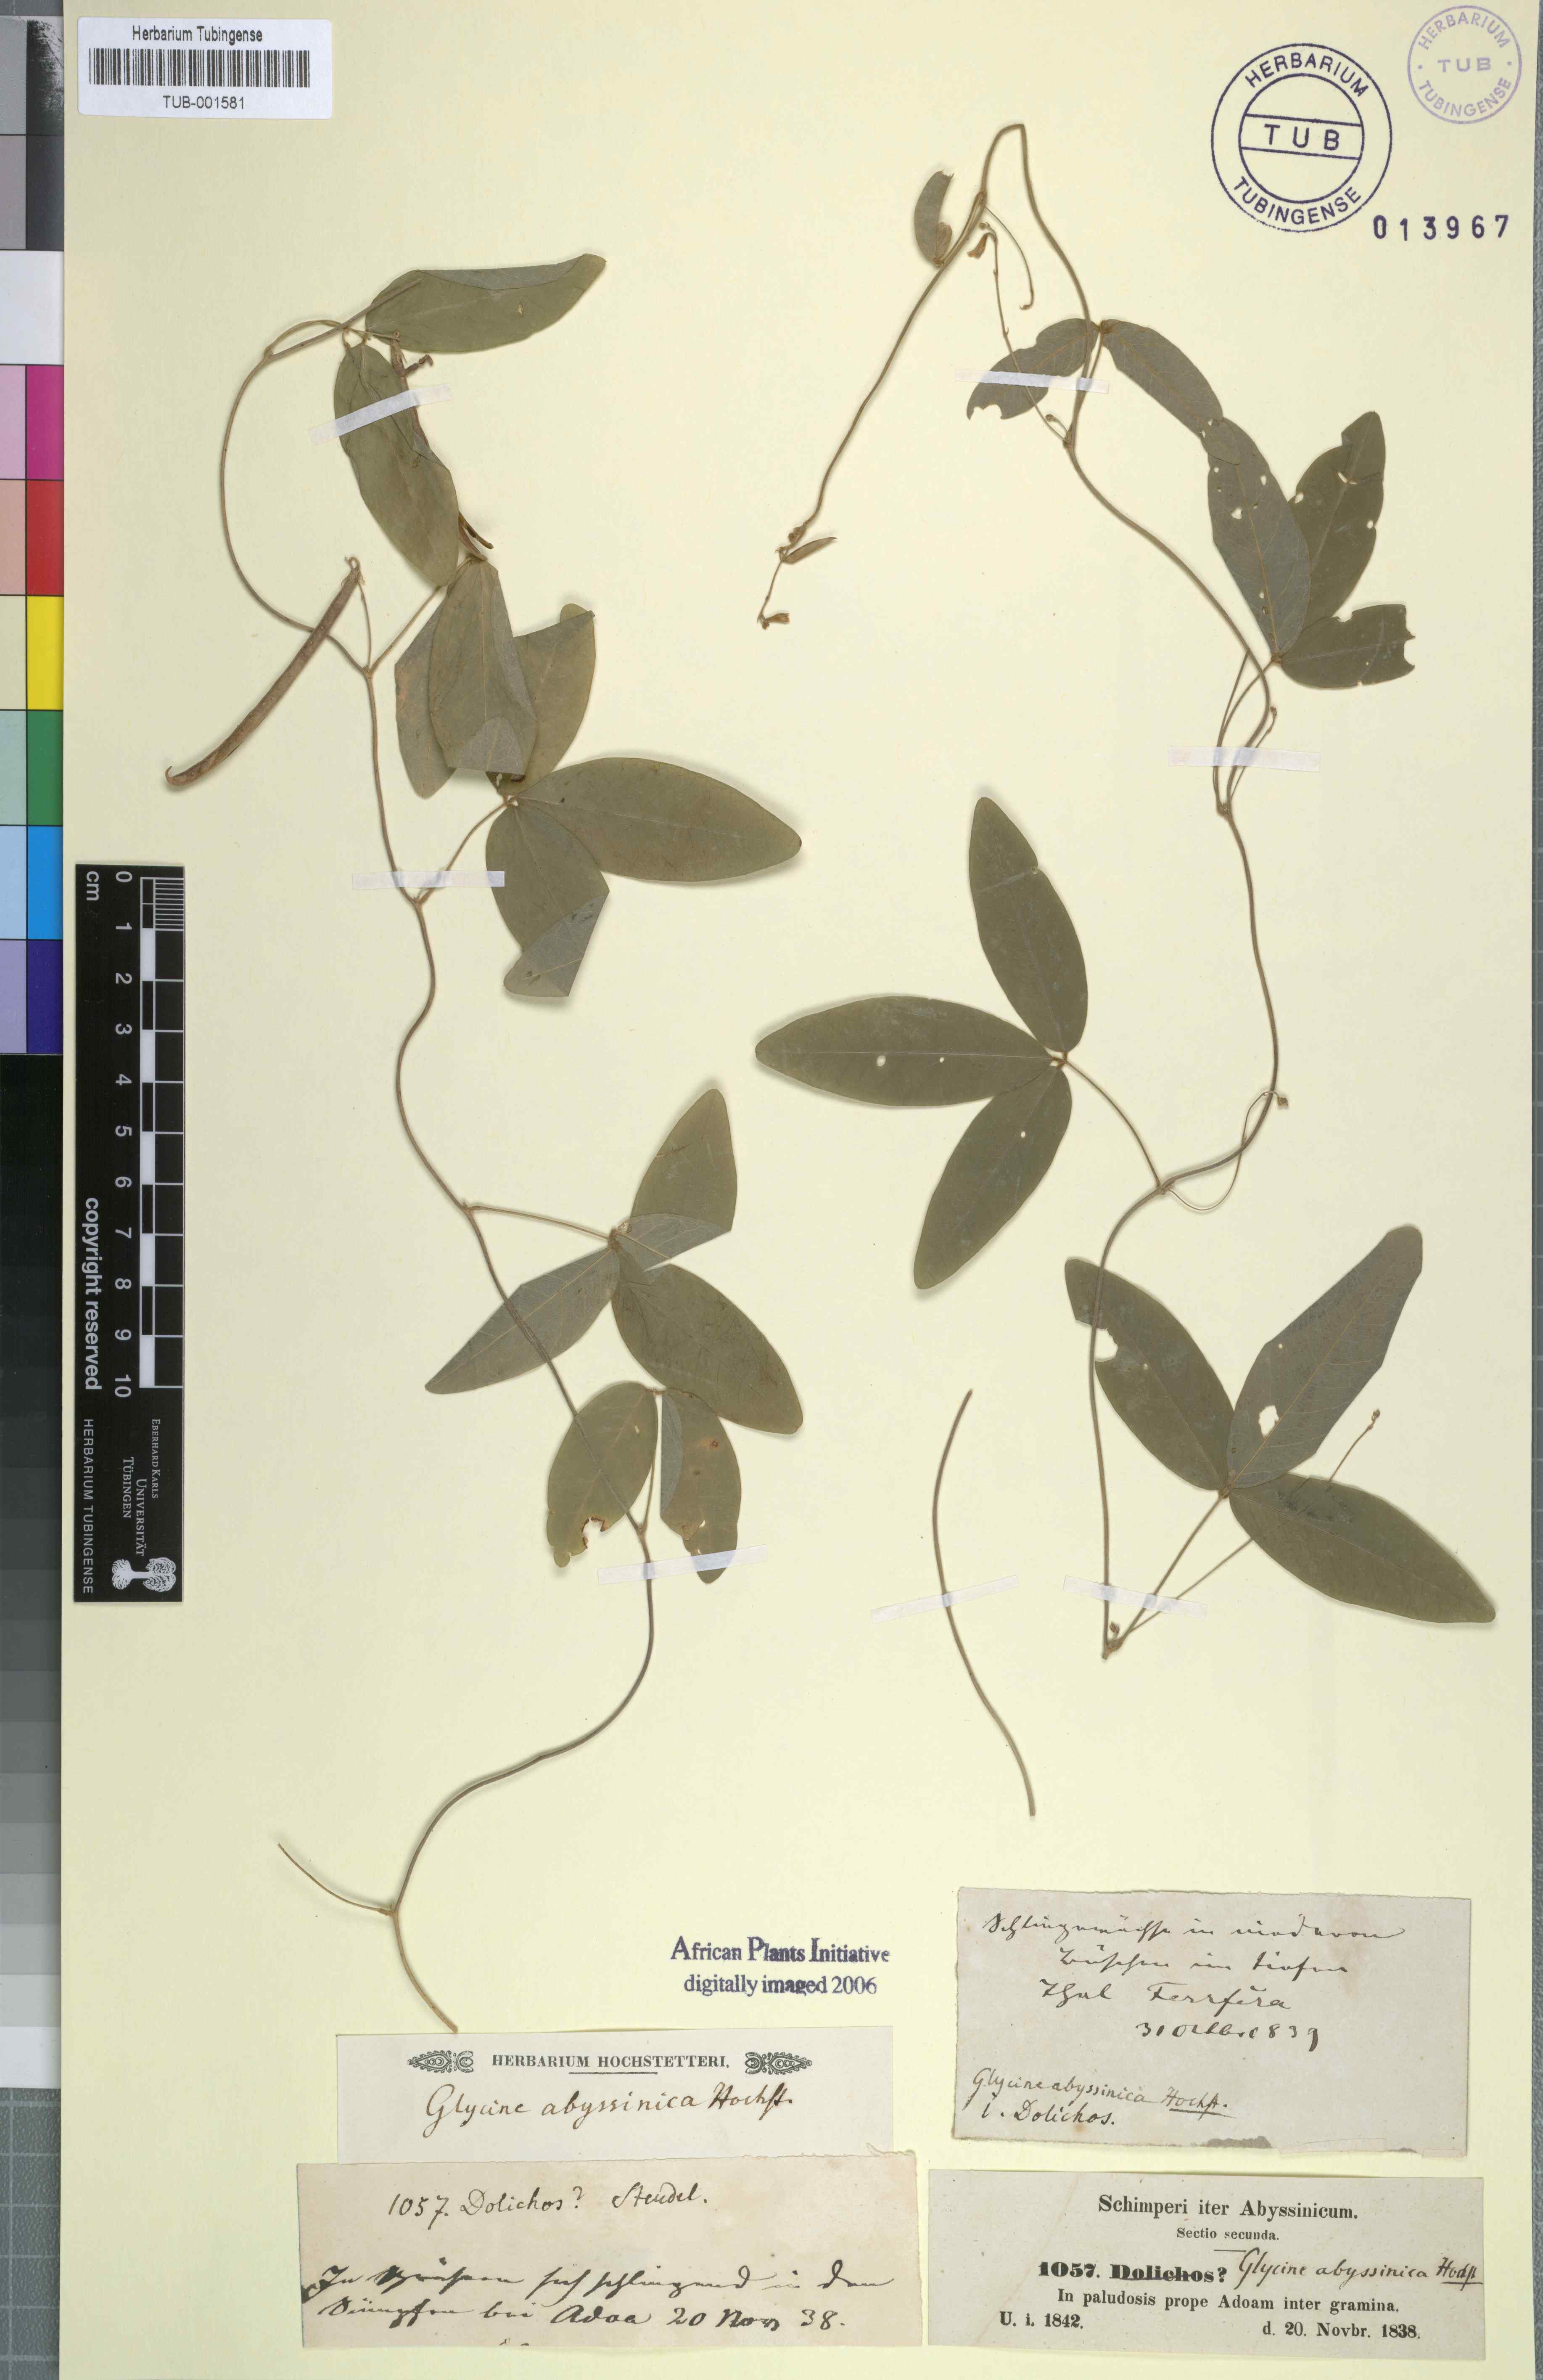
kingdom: Plantae
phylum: Tracheophyta
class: Magnoliopsida
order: Fabales
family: Fabaceae
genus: Teramnus
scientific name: Teramnus labialis
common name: Blue wiss
